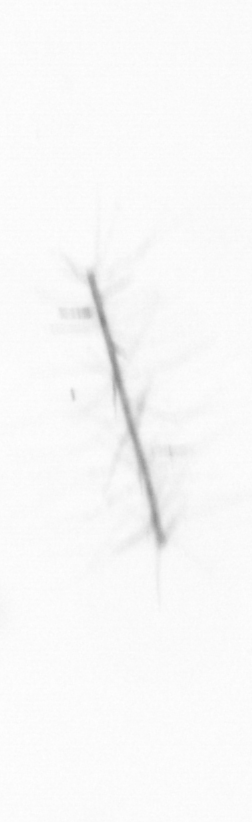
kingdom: Chromista
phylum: Ochrophyta
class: Bacillariophyceae
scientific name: Bacillariophyceae
